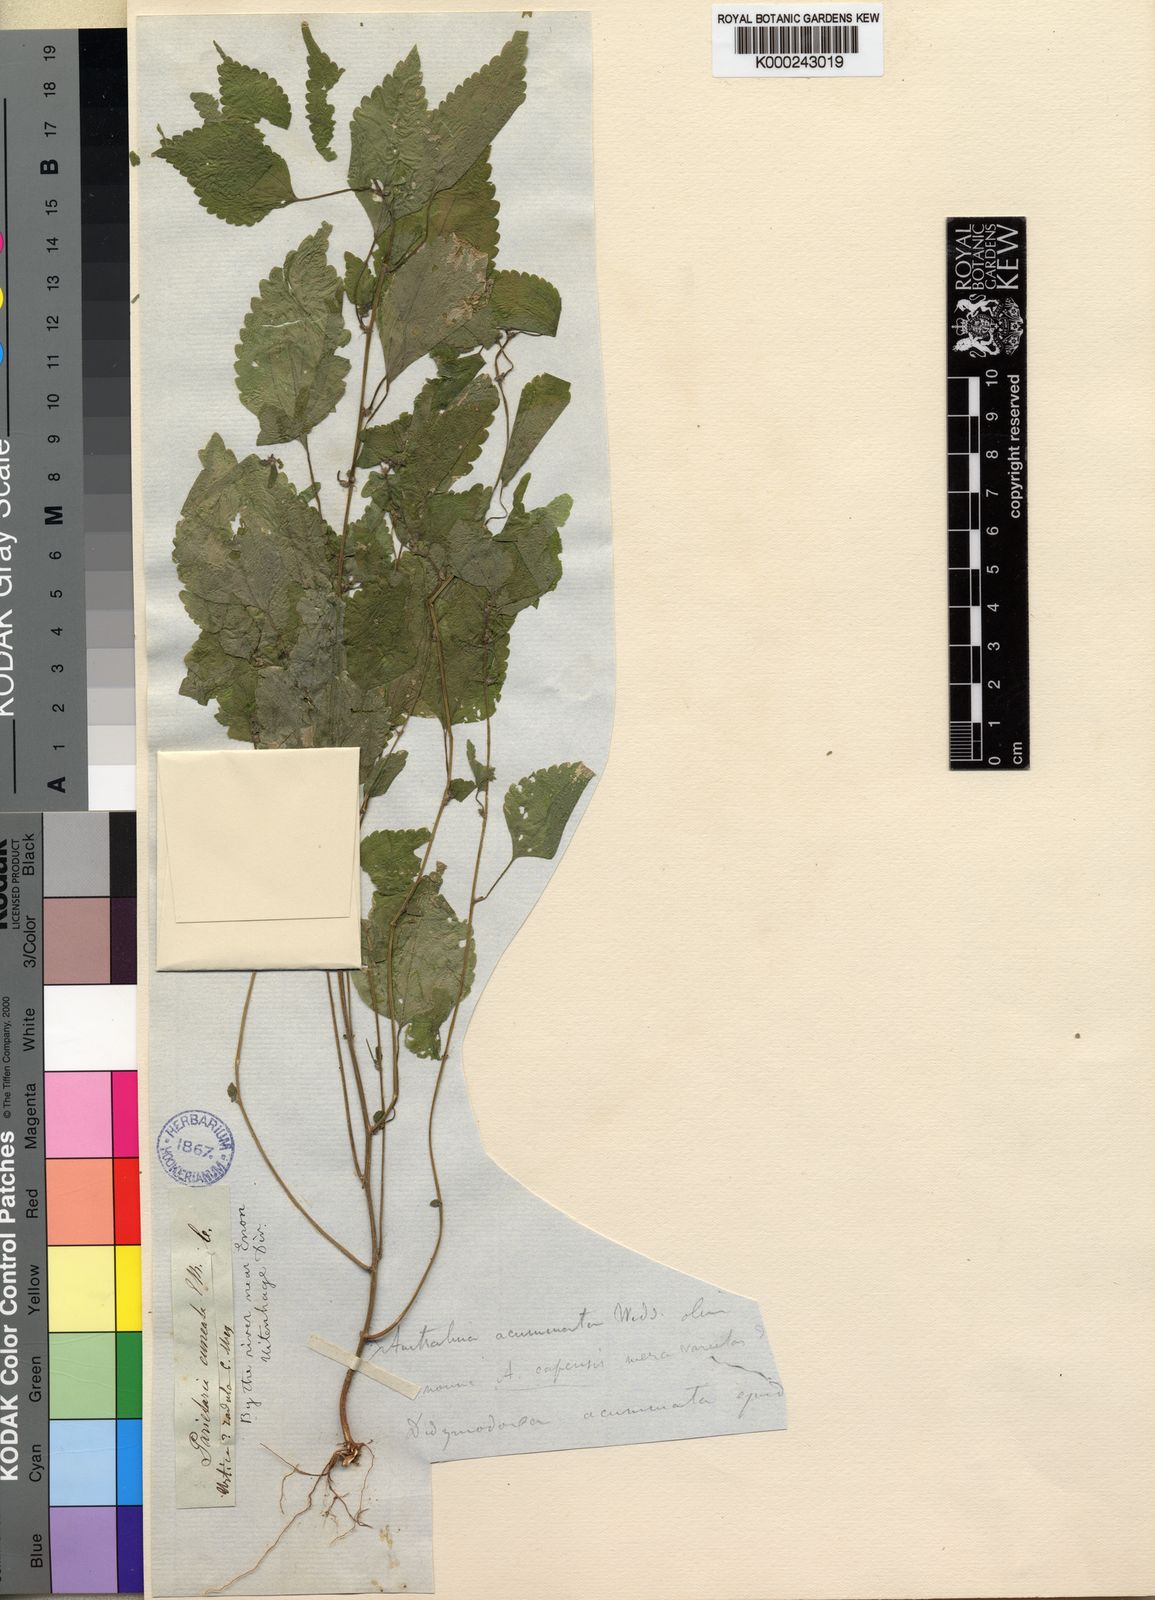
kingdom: Plantae
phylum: Tracheophyta
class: Magnoliopsida
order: Rosales
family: Urticaceae
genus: Didymodoxa
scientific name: Didymodoxa caffra
